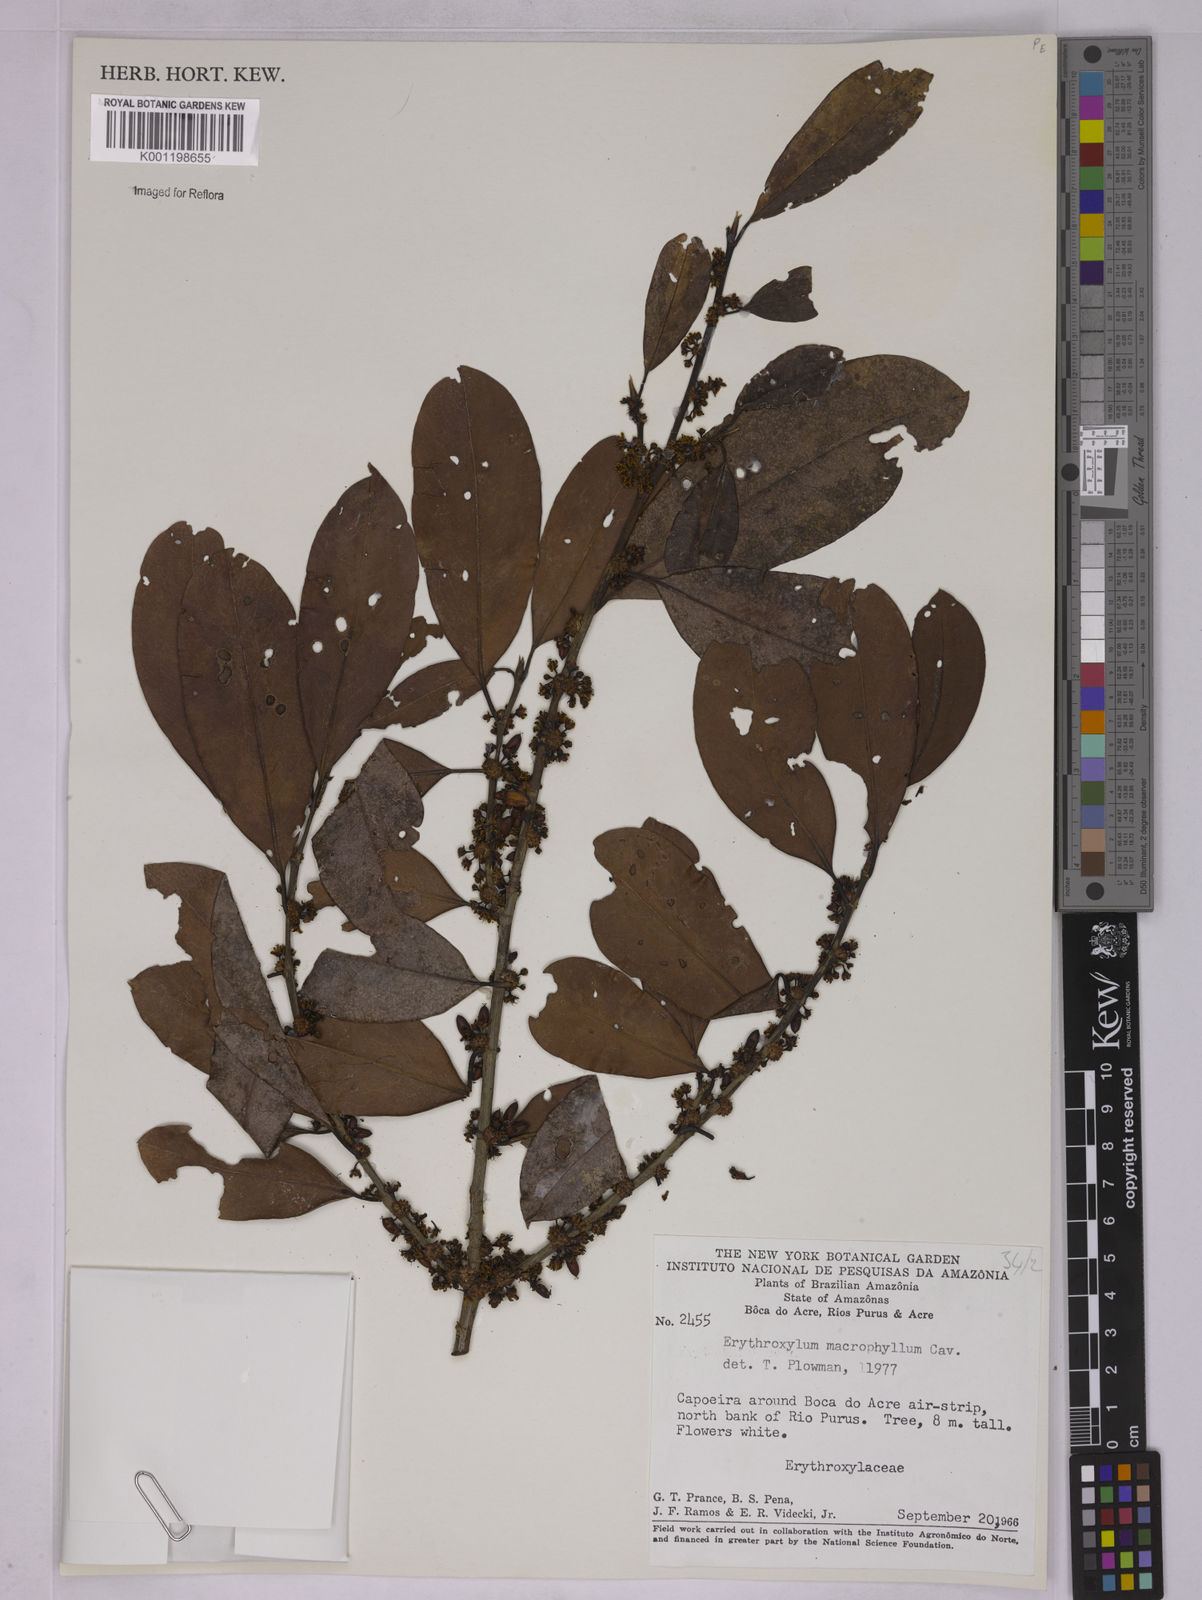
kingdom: Plantae
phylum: Tracheophyta
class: Magnoliopsida
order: Malpighiales
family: Erythroxylaceae
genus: Erythroxylum
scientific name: Erythroxylum macrophyllum
